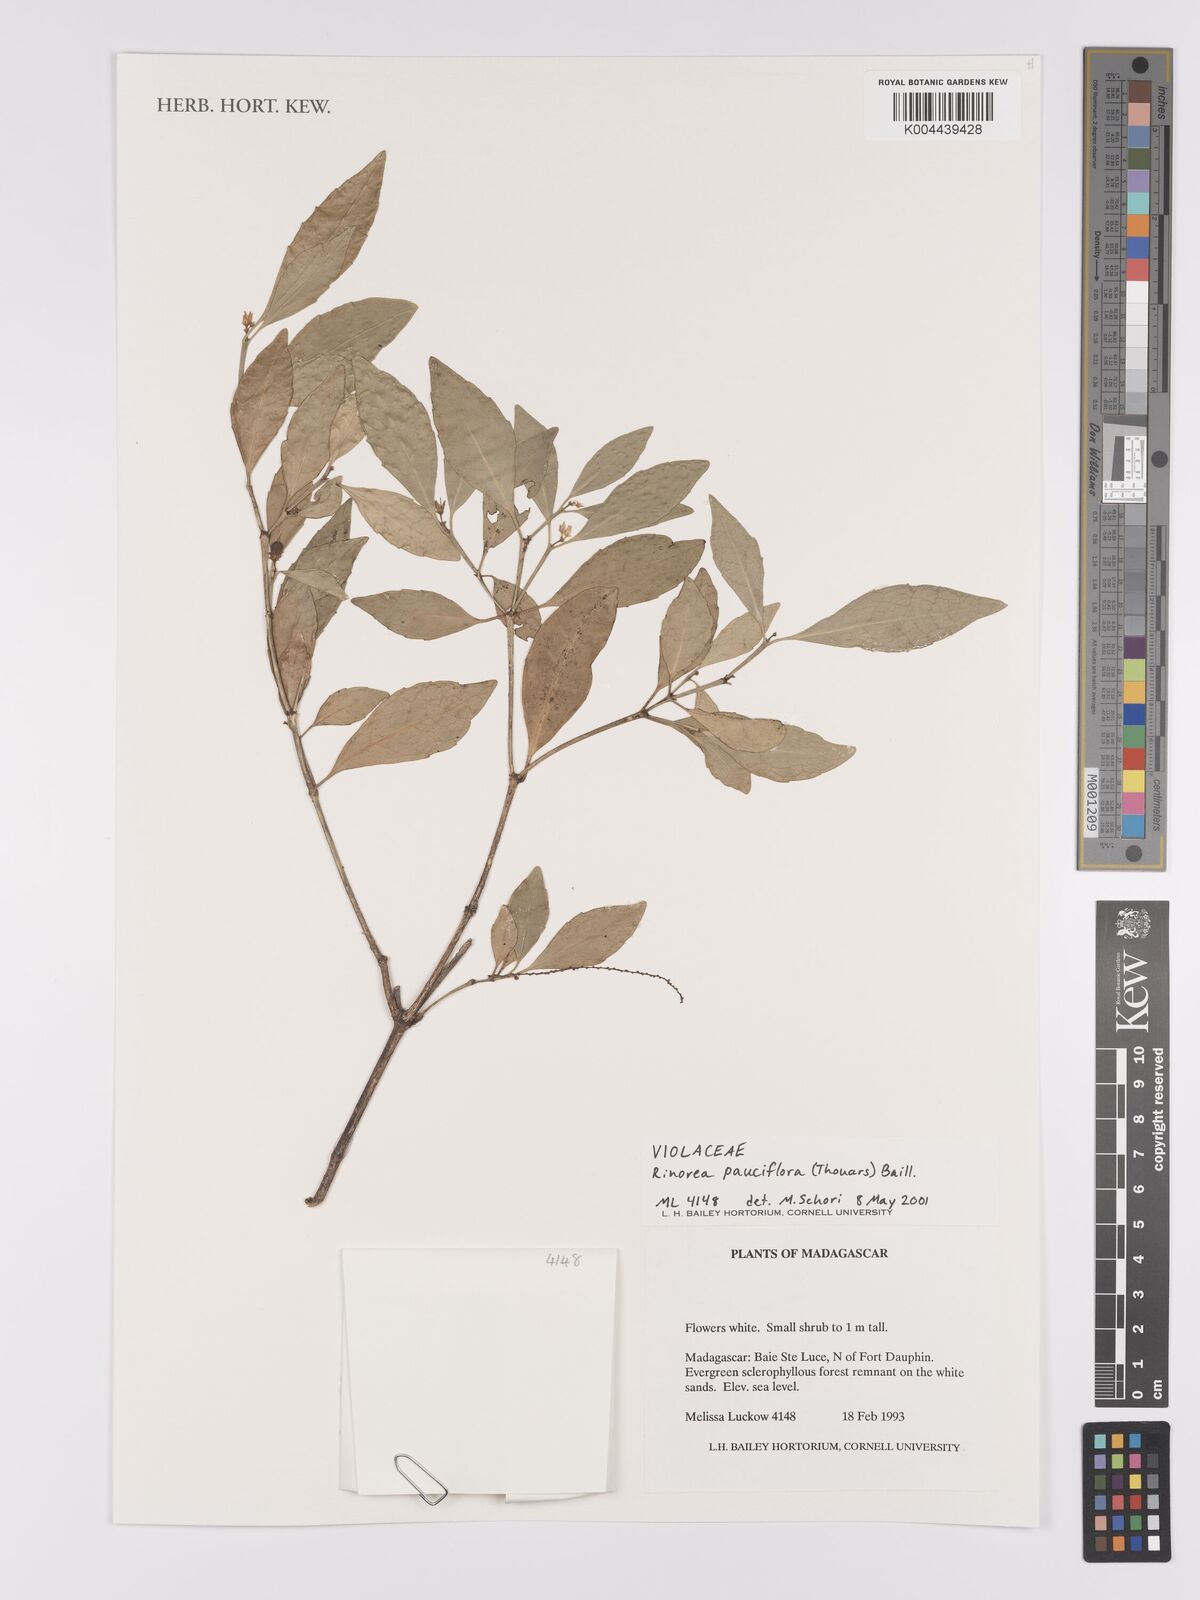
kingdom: Plantae
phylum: Tracheophyta
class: Magnoliopsida
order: Malpighiales
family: Violaceae
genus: Rinorea
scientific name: Rinorea pauciflora
